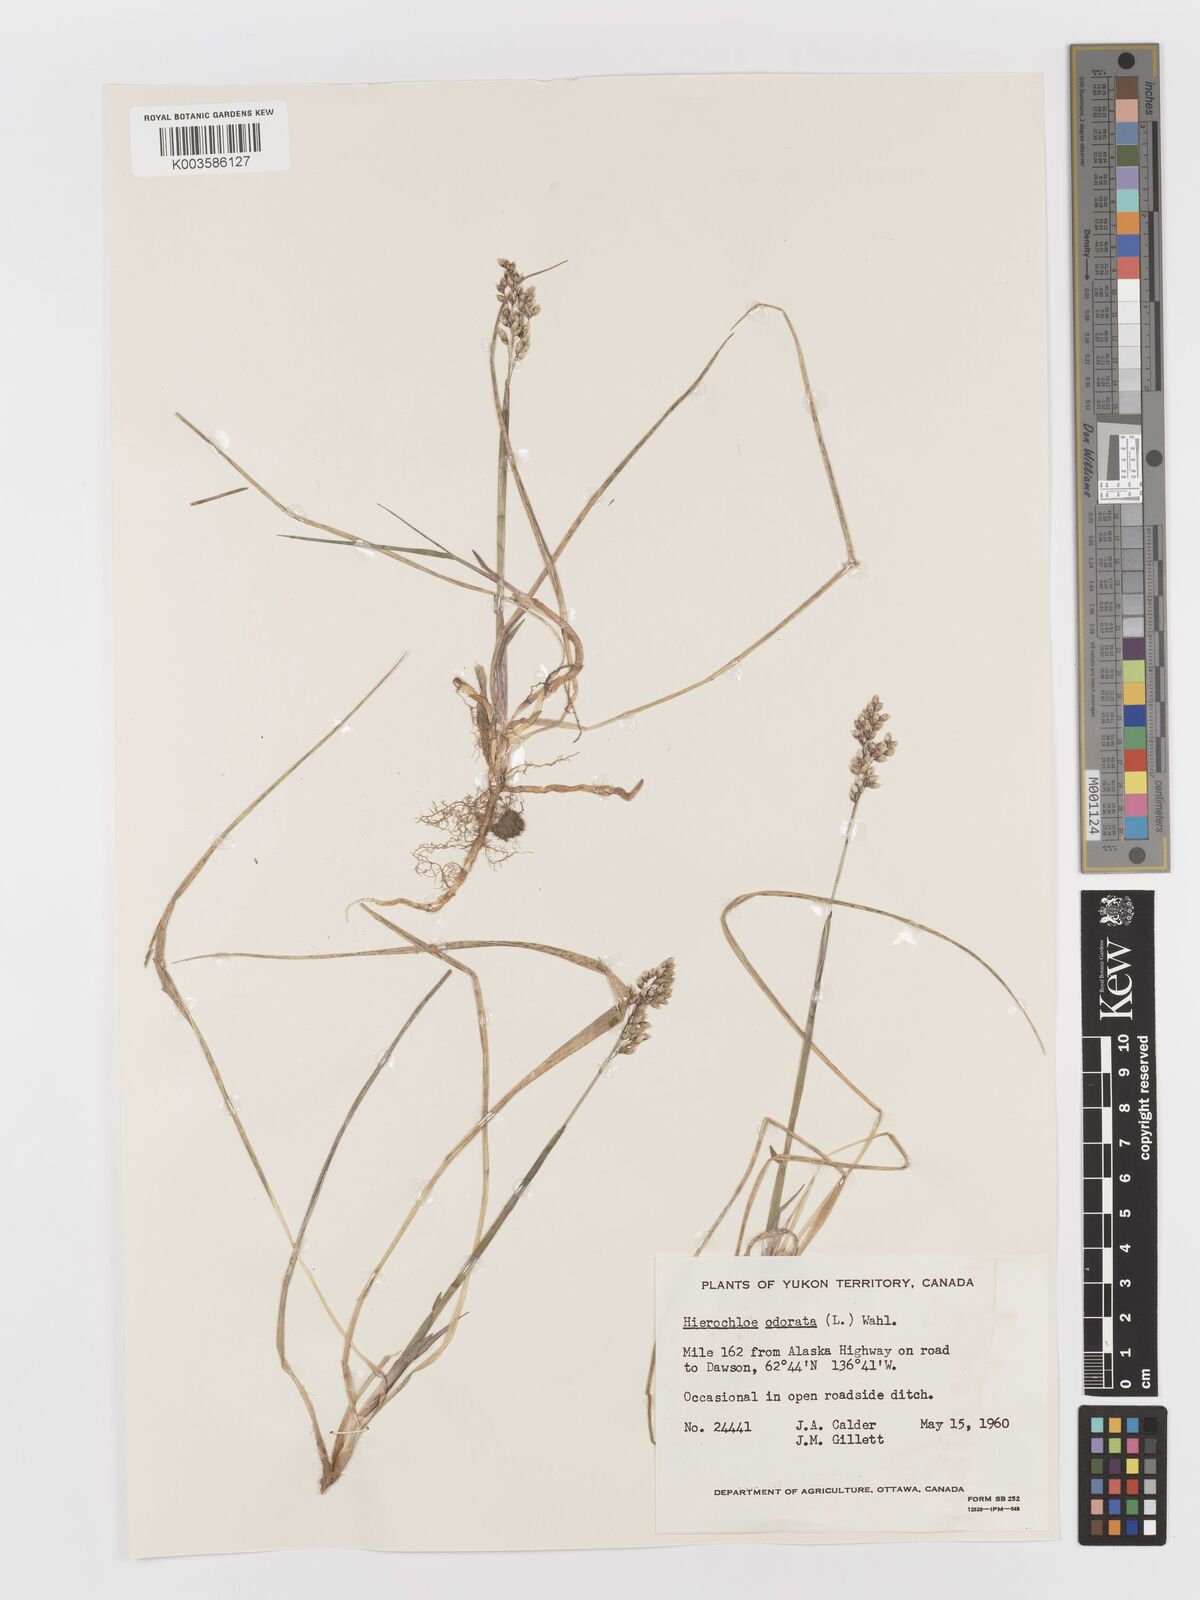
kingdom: Plantae
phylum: Tracheophyta
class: Liliopsida
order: Poales
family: Poaceae
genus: Anthoxanthum
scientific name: Anthoxanthum nitens
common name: Holy grass
